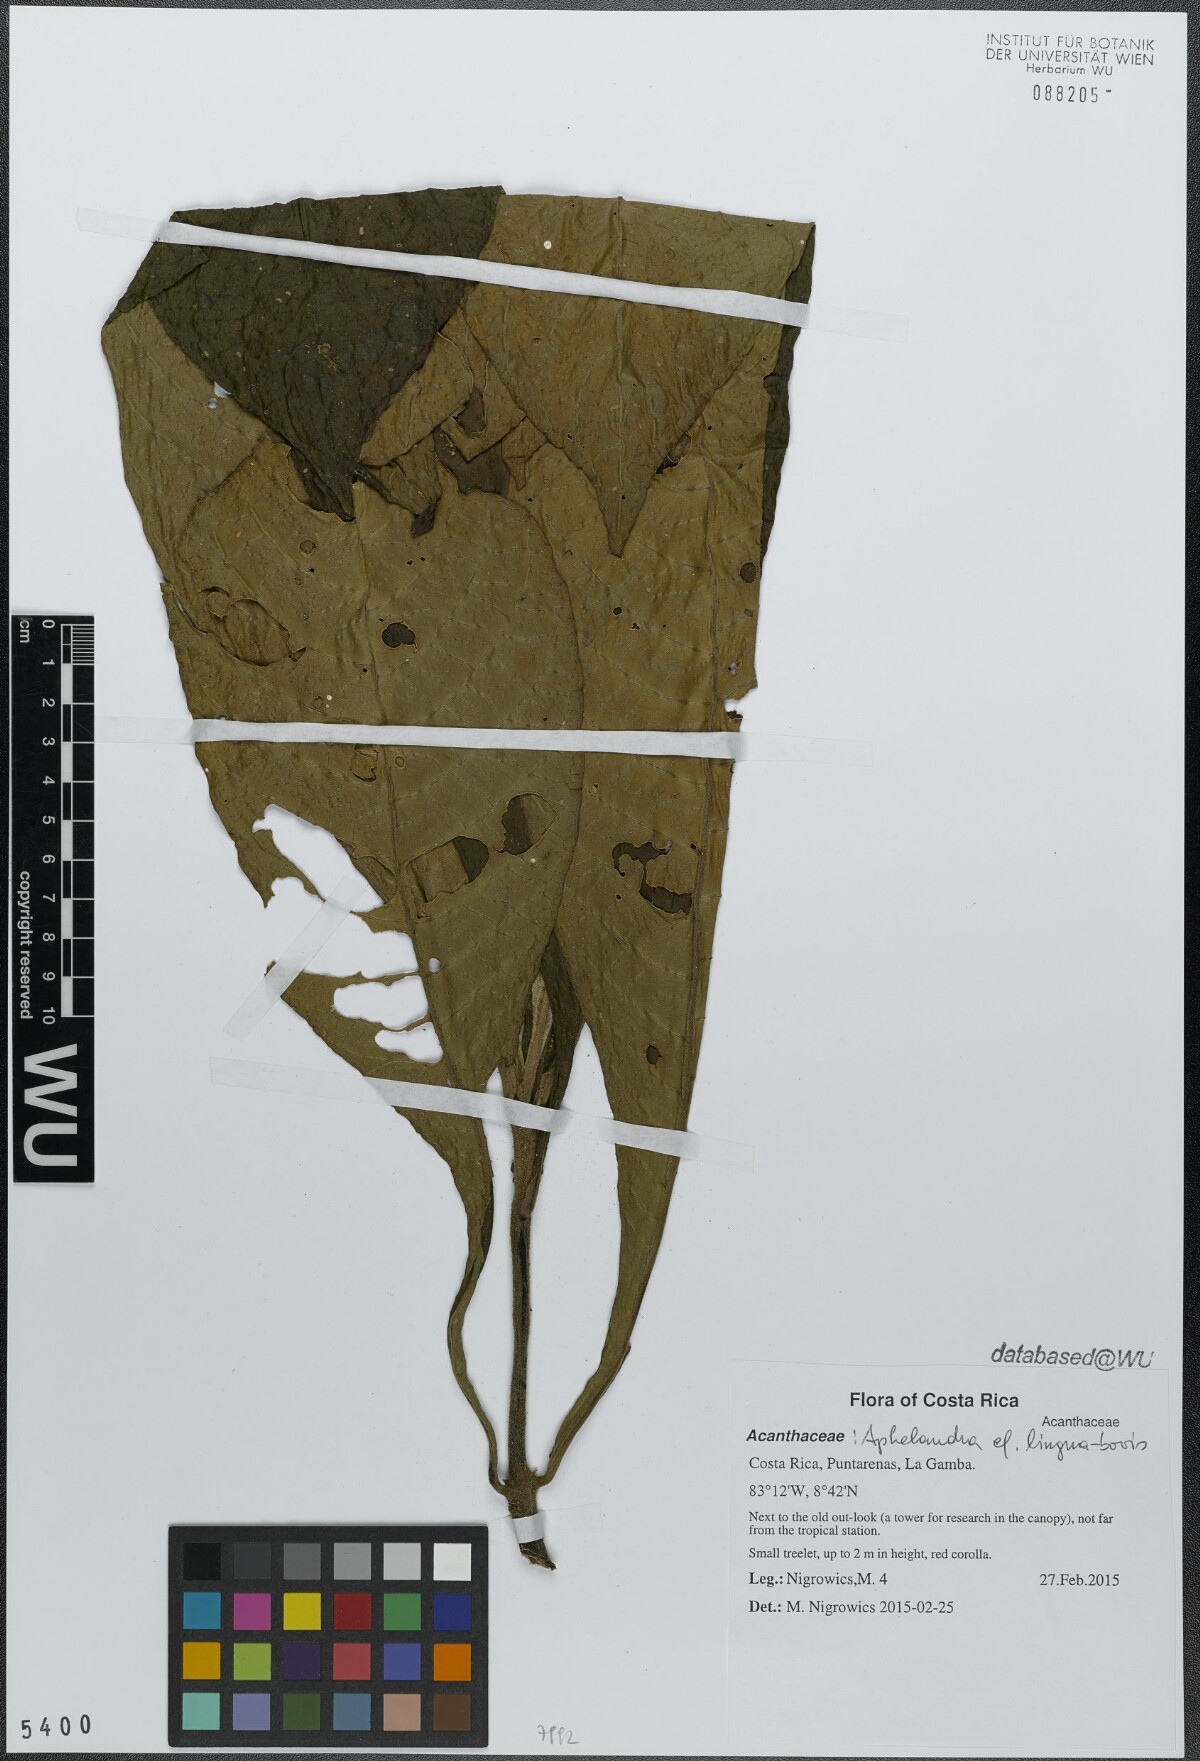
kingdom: Plantae
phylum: Tracheophyta
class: Magnoliopsida
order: Lamiales
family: Acanthaceae
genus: Aphelandra
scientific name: Aphelandra lingua-bovis
